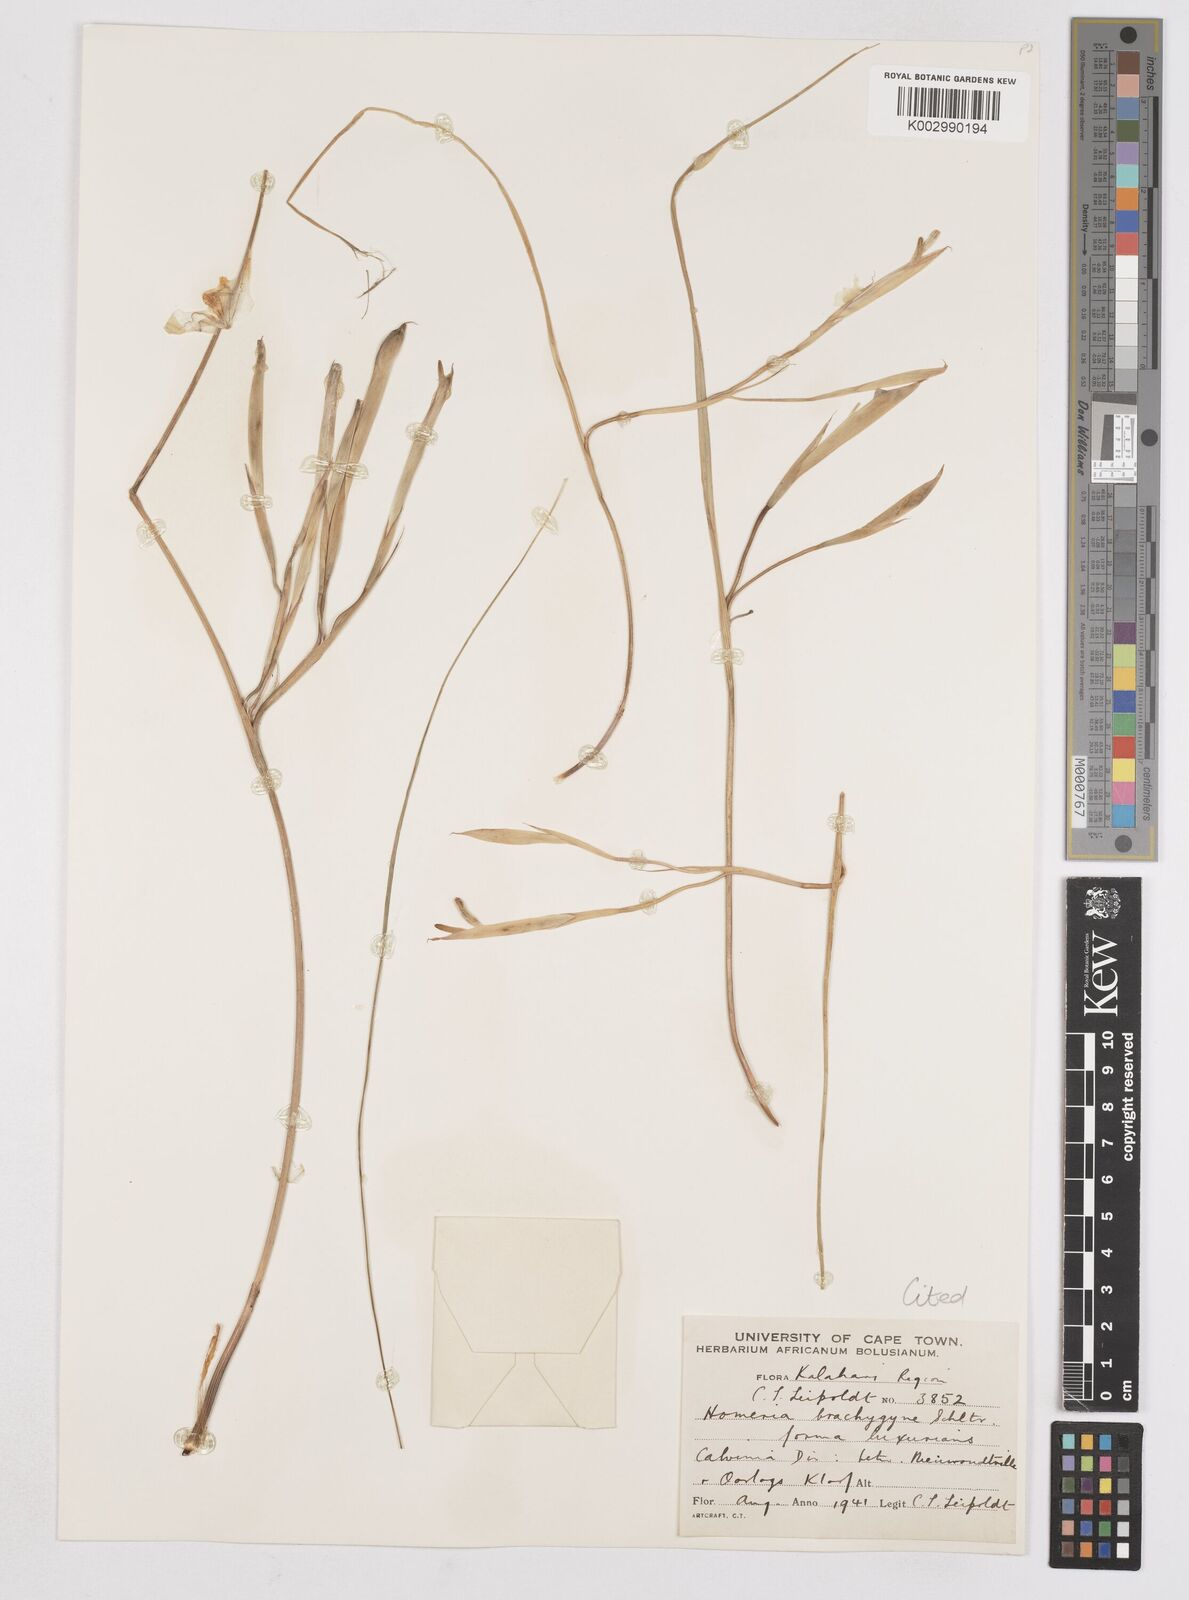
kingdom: Plantae
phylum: Tracheophyta
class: Liliopsida
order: Asparagales
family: Iridaceae
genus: Moraea
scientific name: Moraea vallisavium
